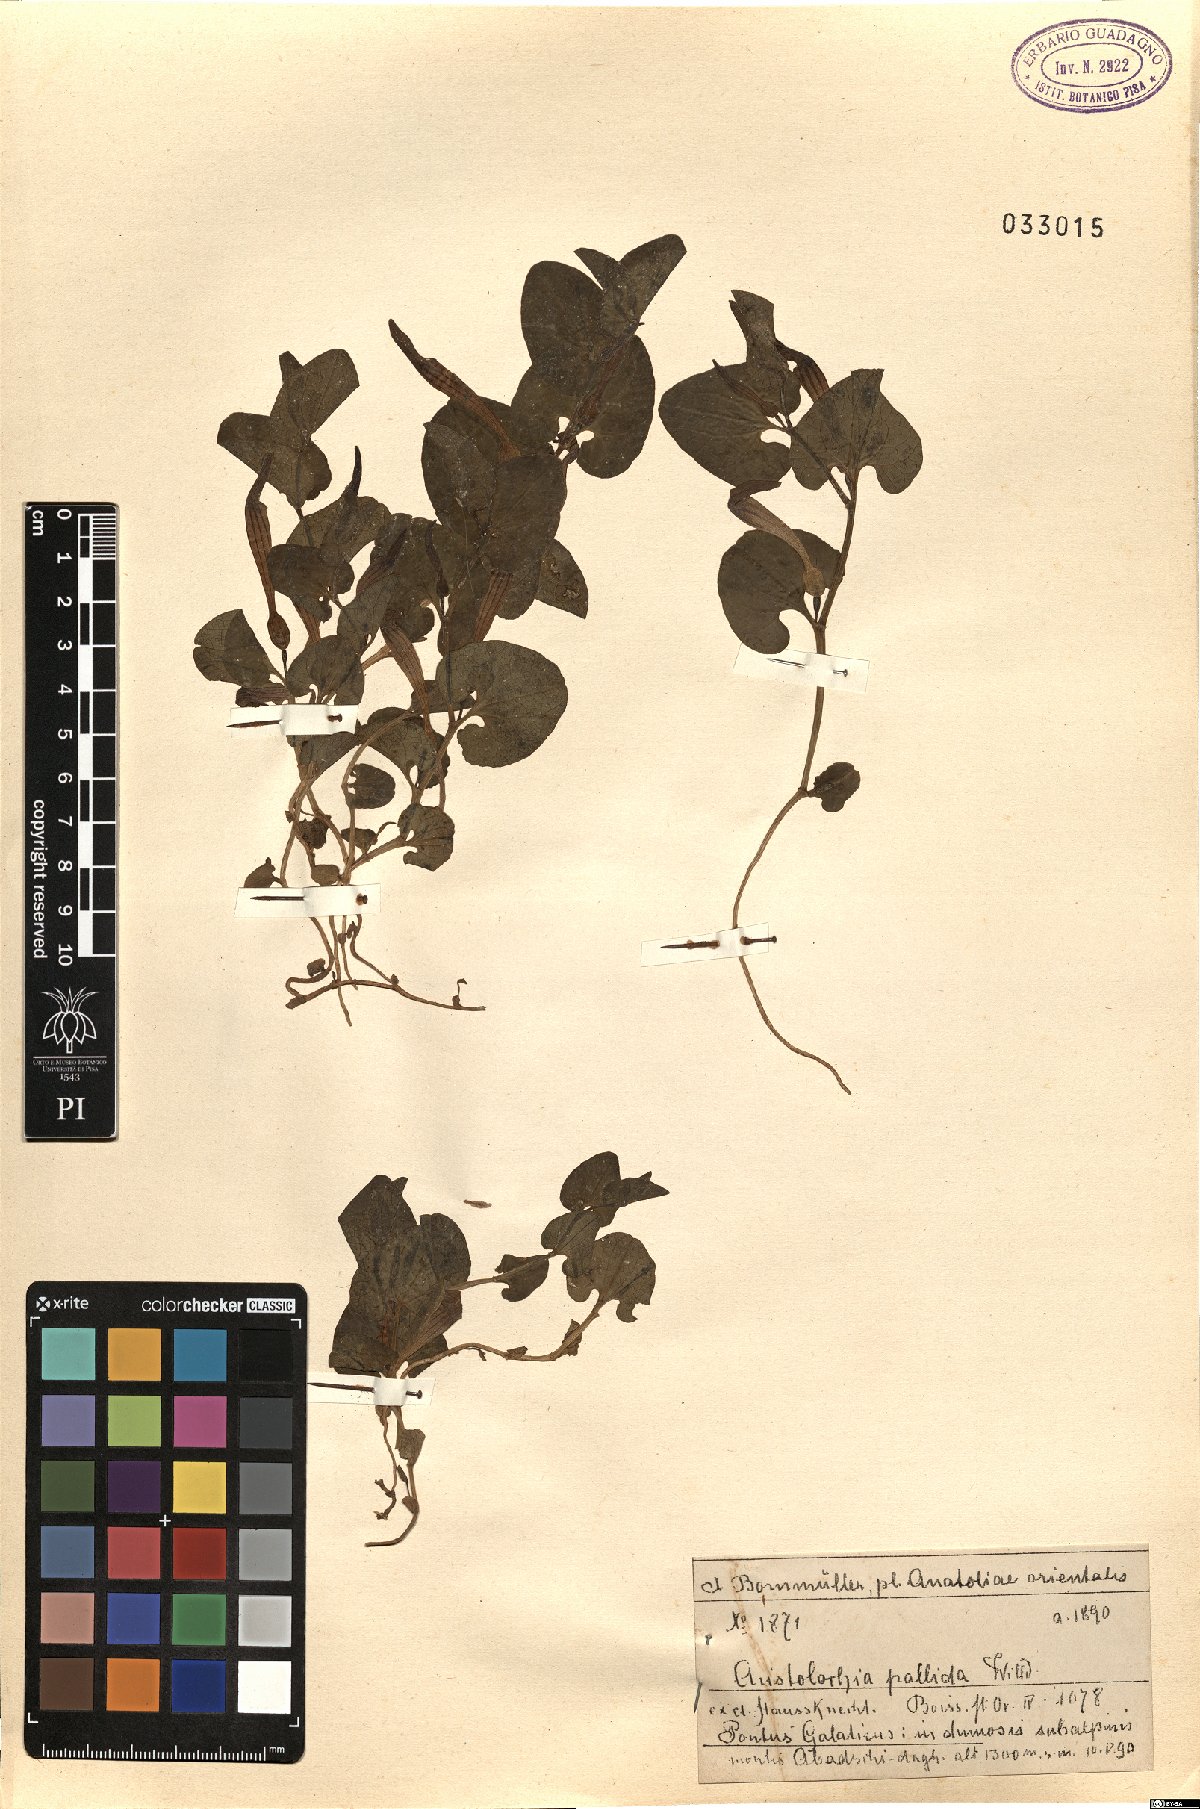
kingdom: Plantae
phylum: Tracheophyta
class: Magnoliopsida
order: Piperales
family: Aristolochiaceae
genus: Aristolochia
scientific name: Aristolochia pallida
